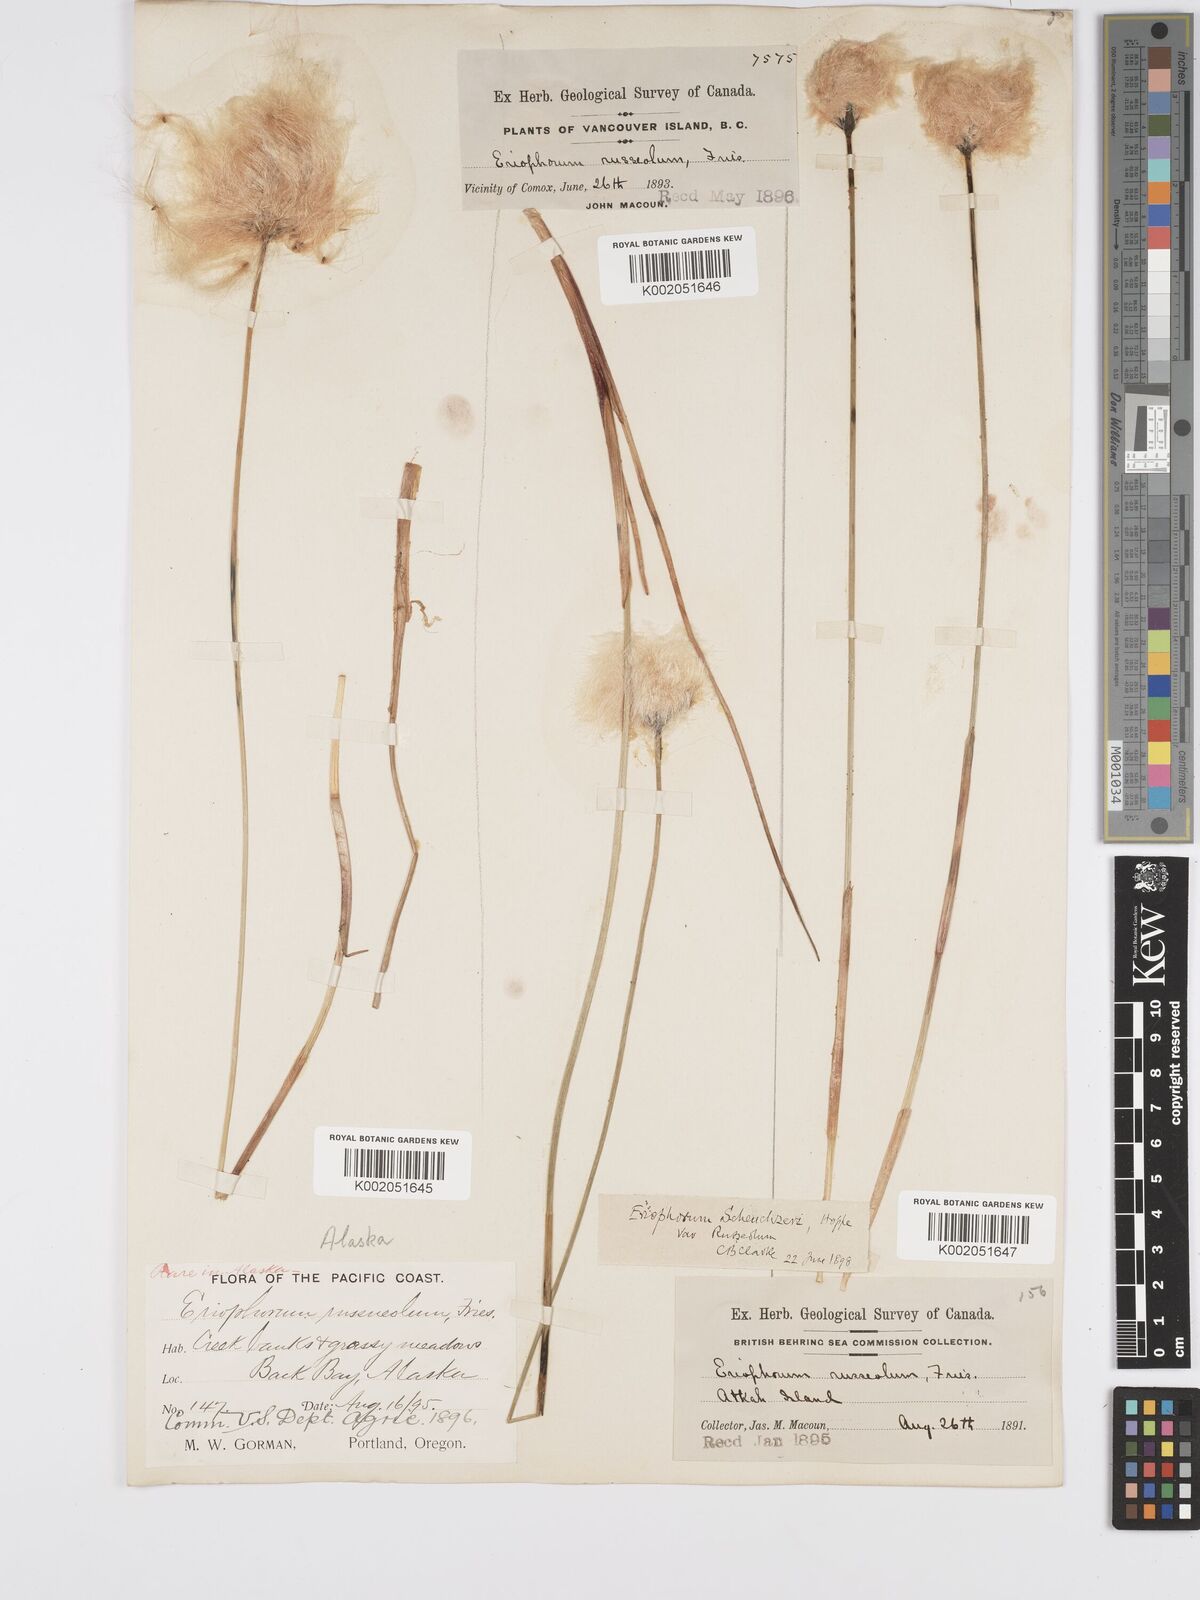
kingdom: Plantae
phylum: Tracheophyta
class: Liliopsida
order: Poales
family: Cyperaceae
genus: Eriophorum
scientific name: Eriophorum chamissonis
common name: Chamisso's cottongrass
